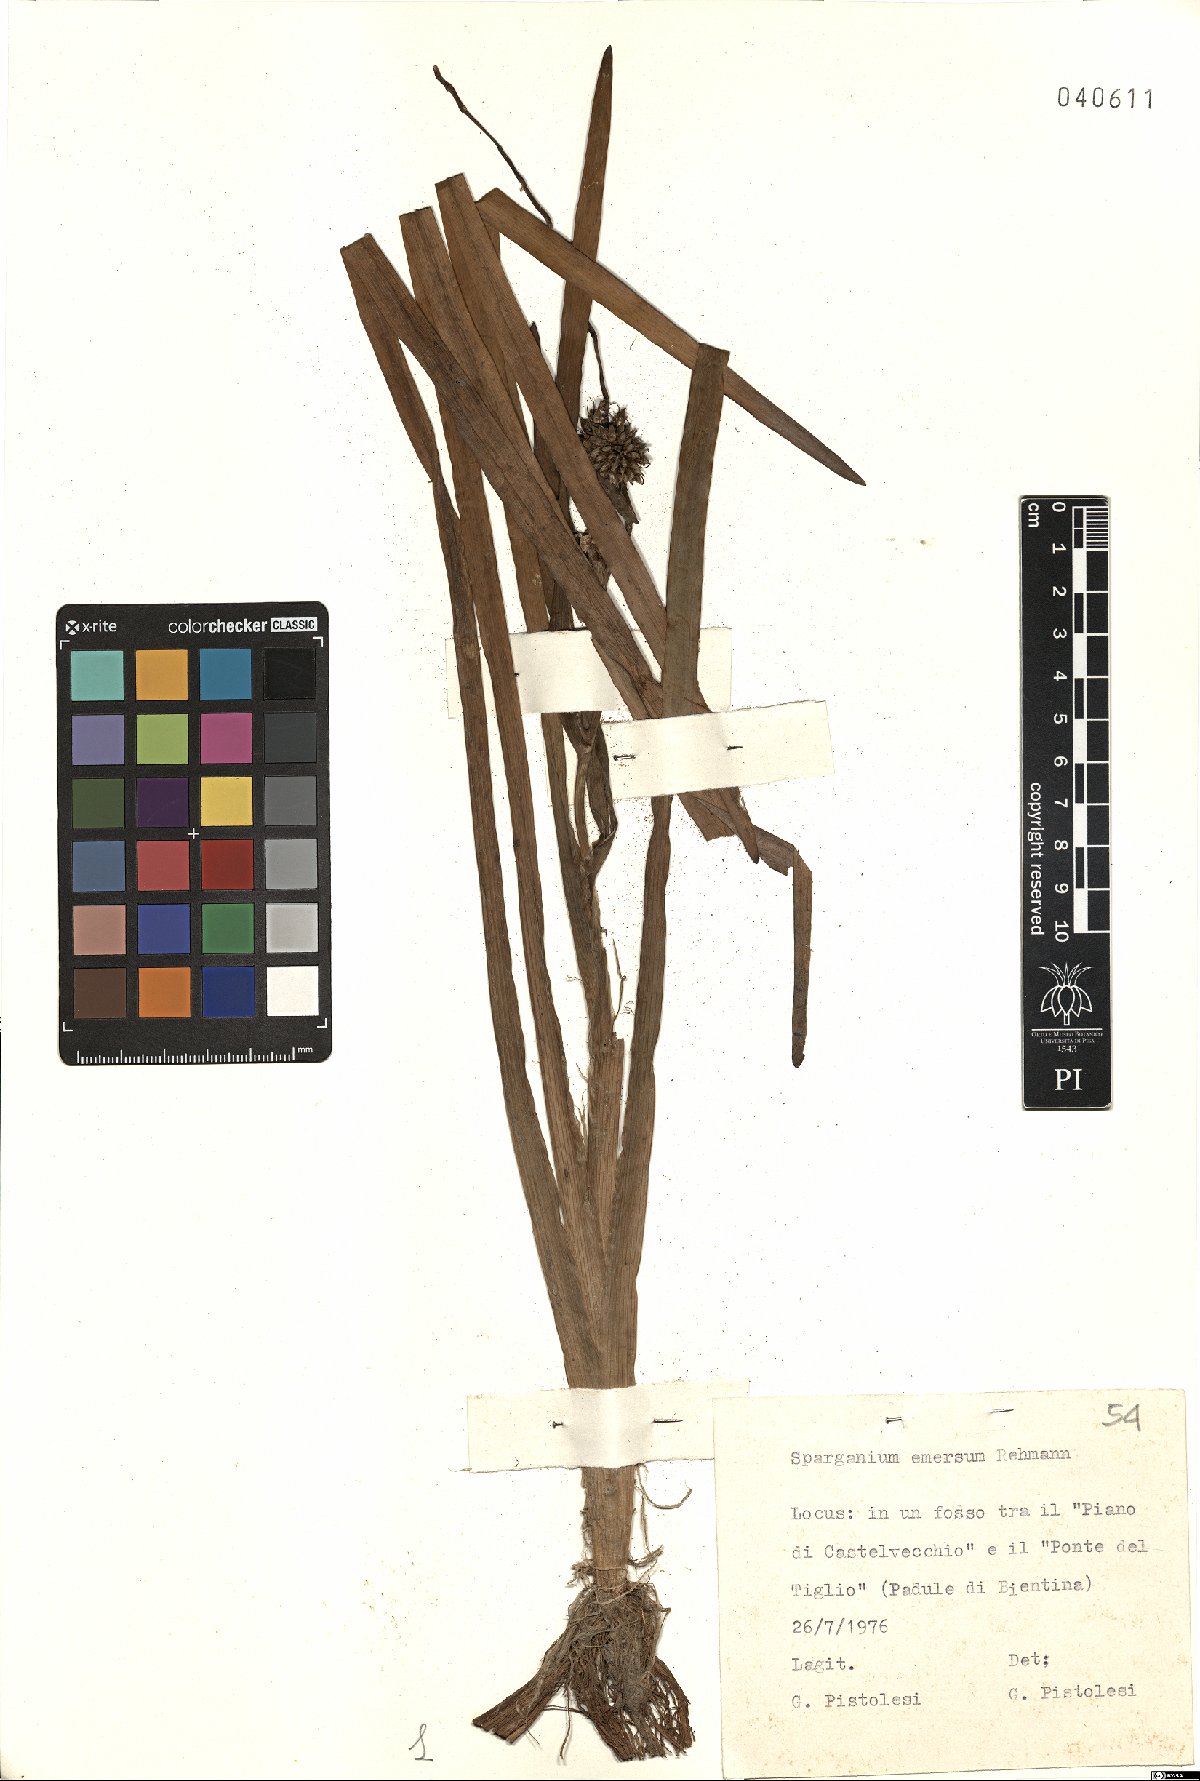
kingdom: Plantae
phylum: Tracheophyta
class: Liliopsida
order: Poales
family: Typhaceae
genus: Sparganium
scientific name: Sparganium emersum
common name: Unbranched bur-reed
